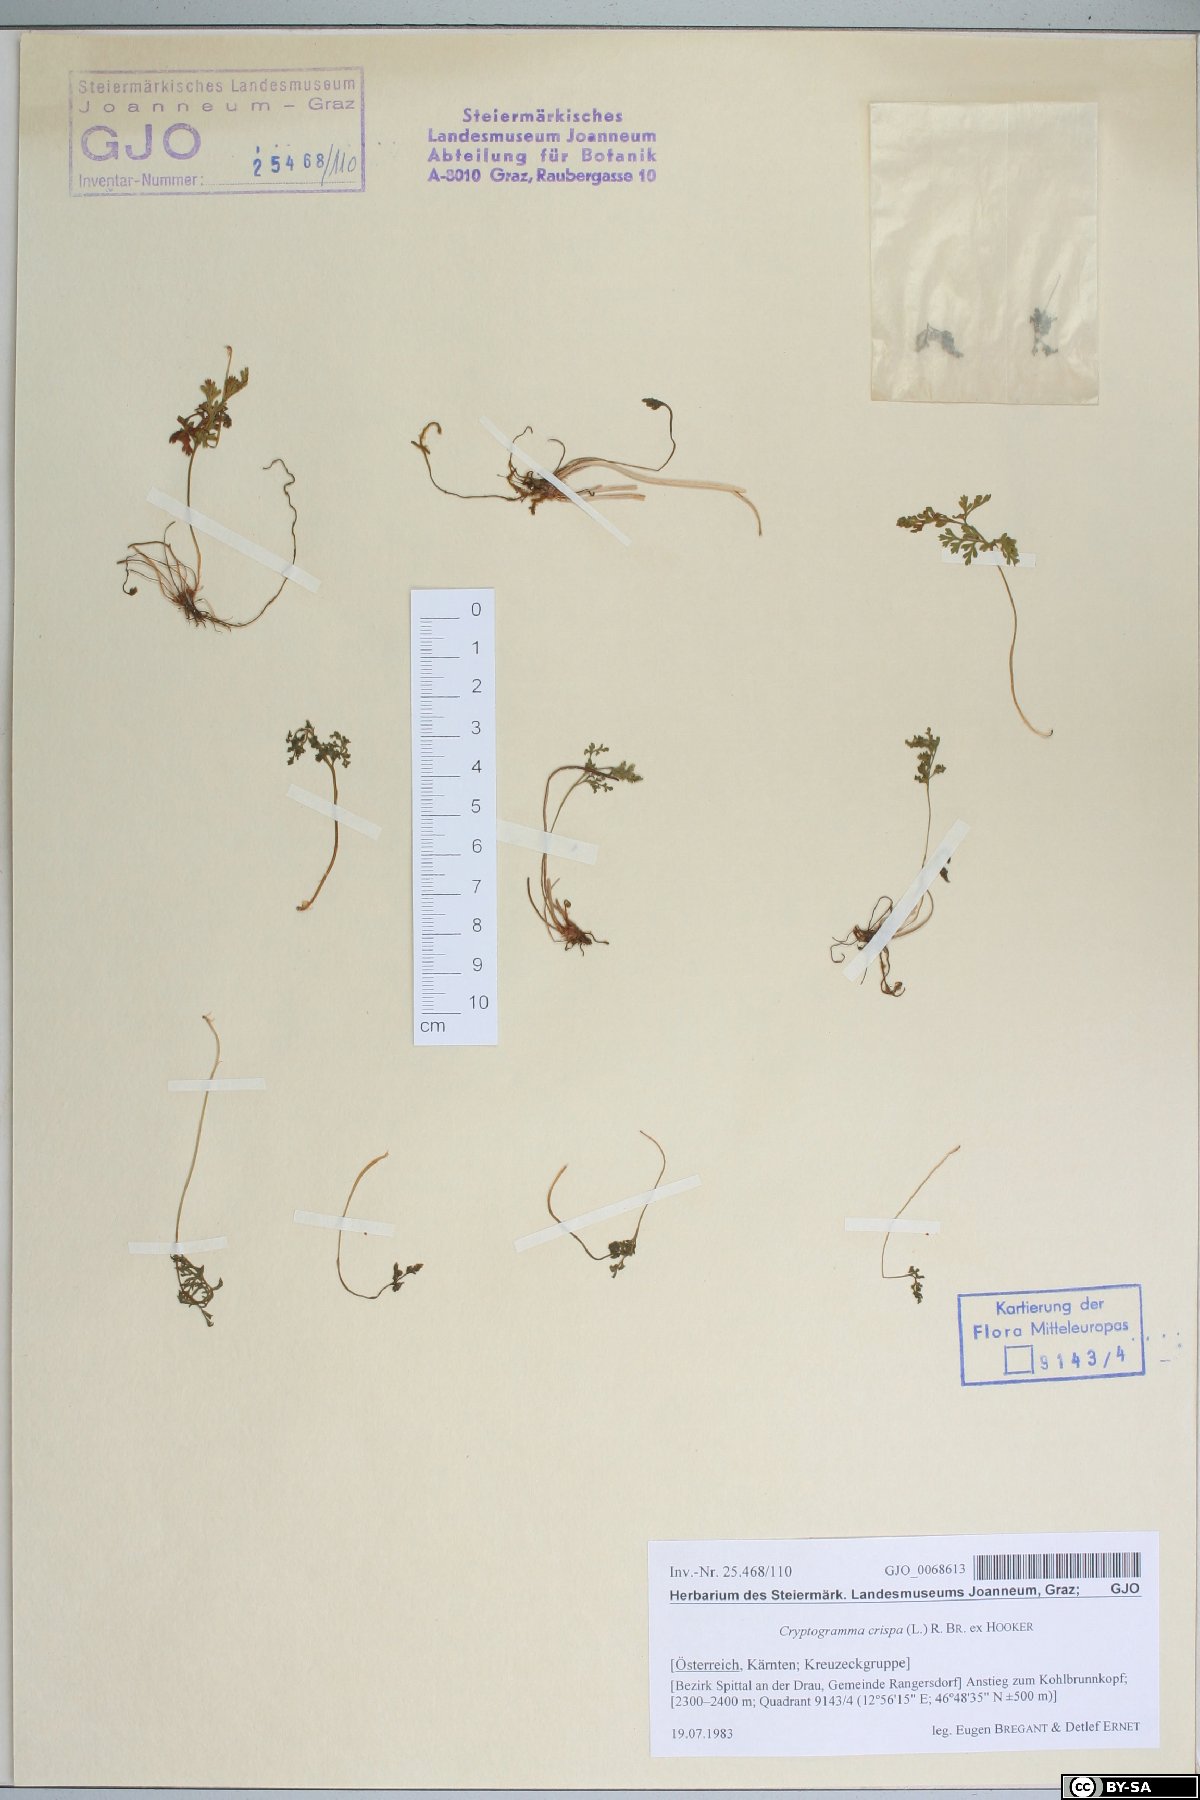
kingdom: Plantae
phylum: Tracheophyta
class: Polypodiopsida
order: Polypodiales
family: Pteridaceae
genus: Cryptogramma
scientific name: Cryptogramma crispa
